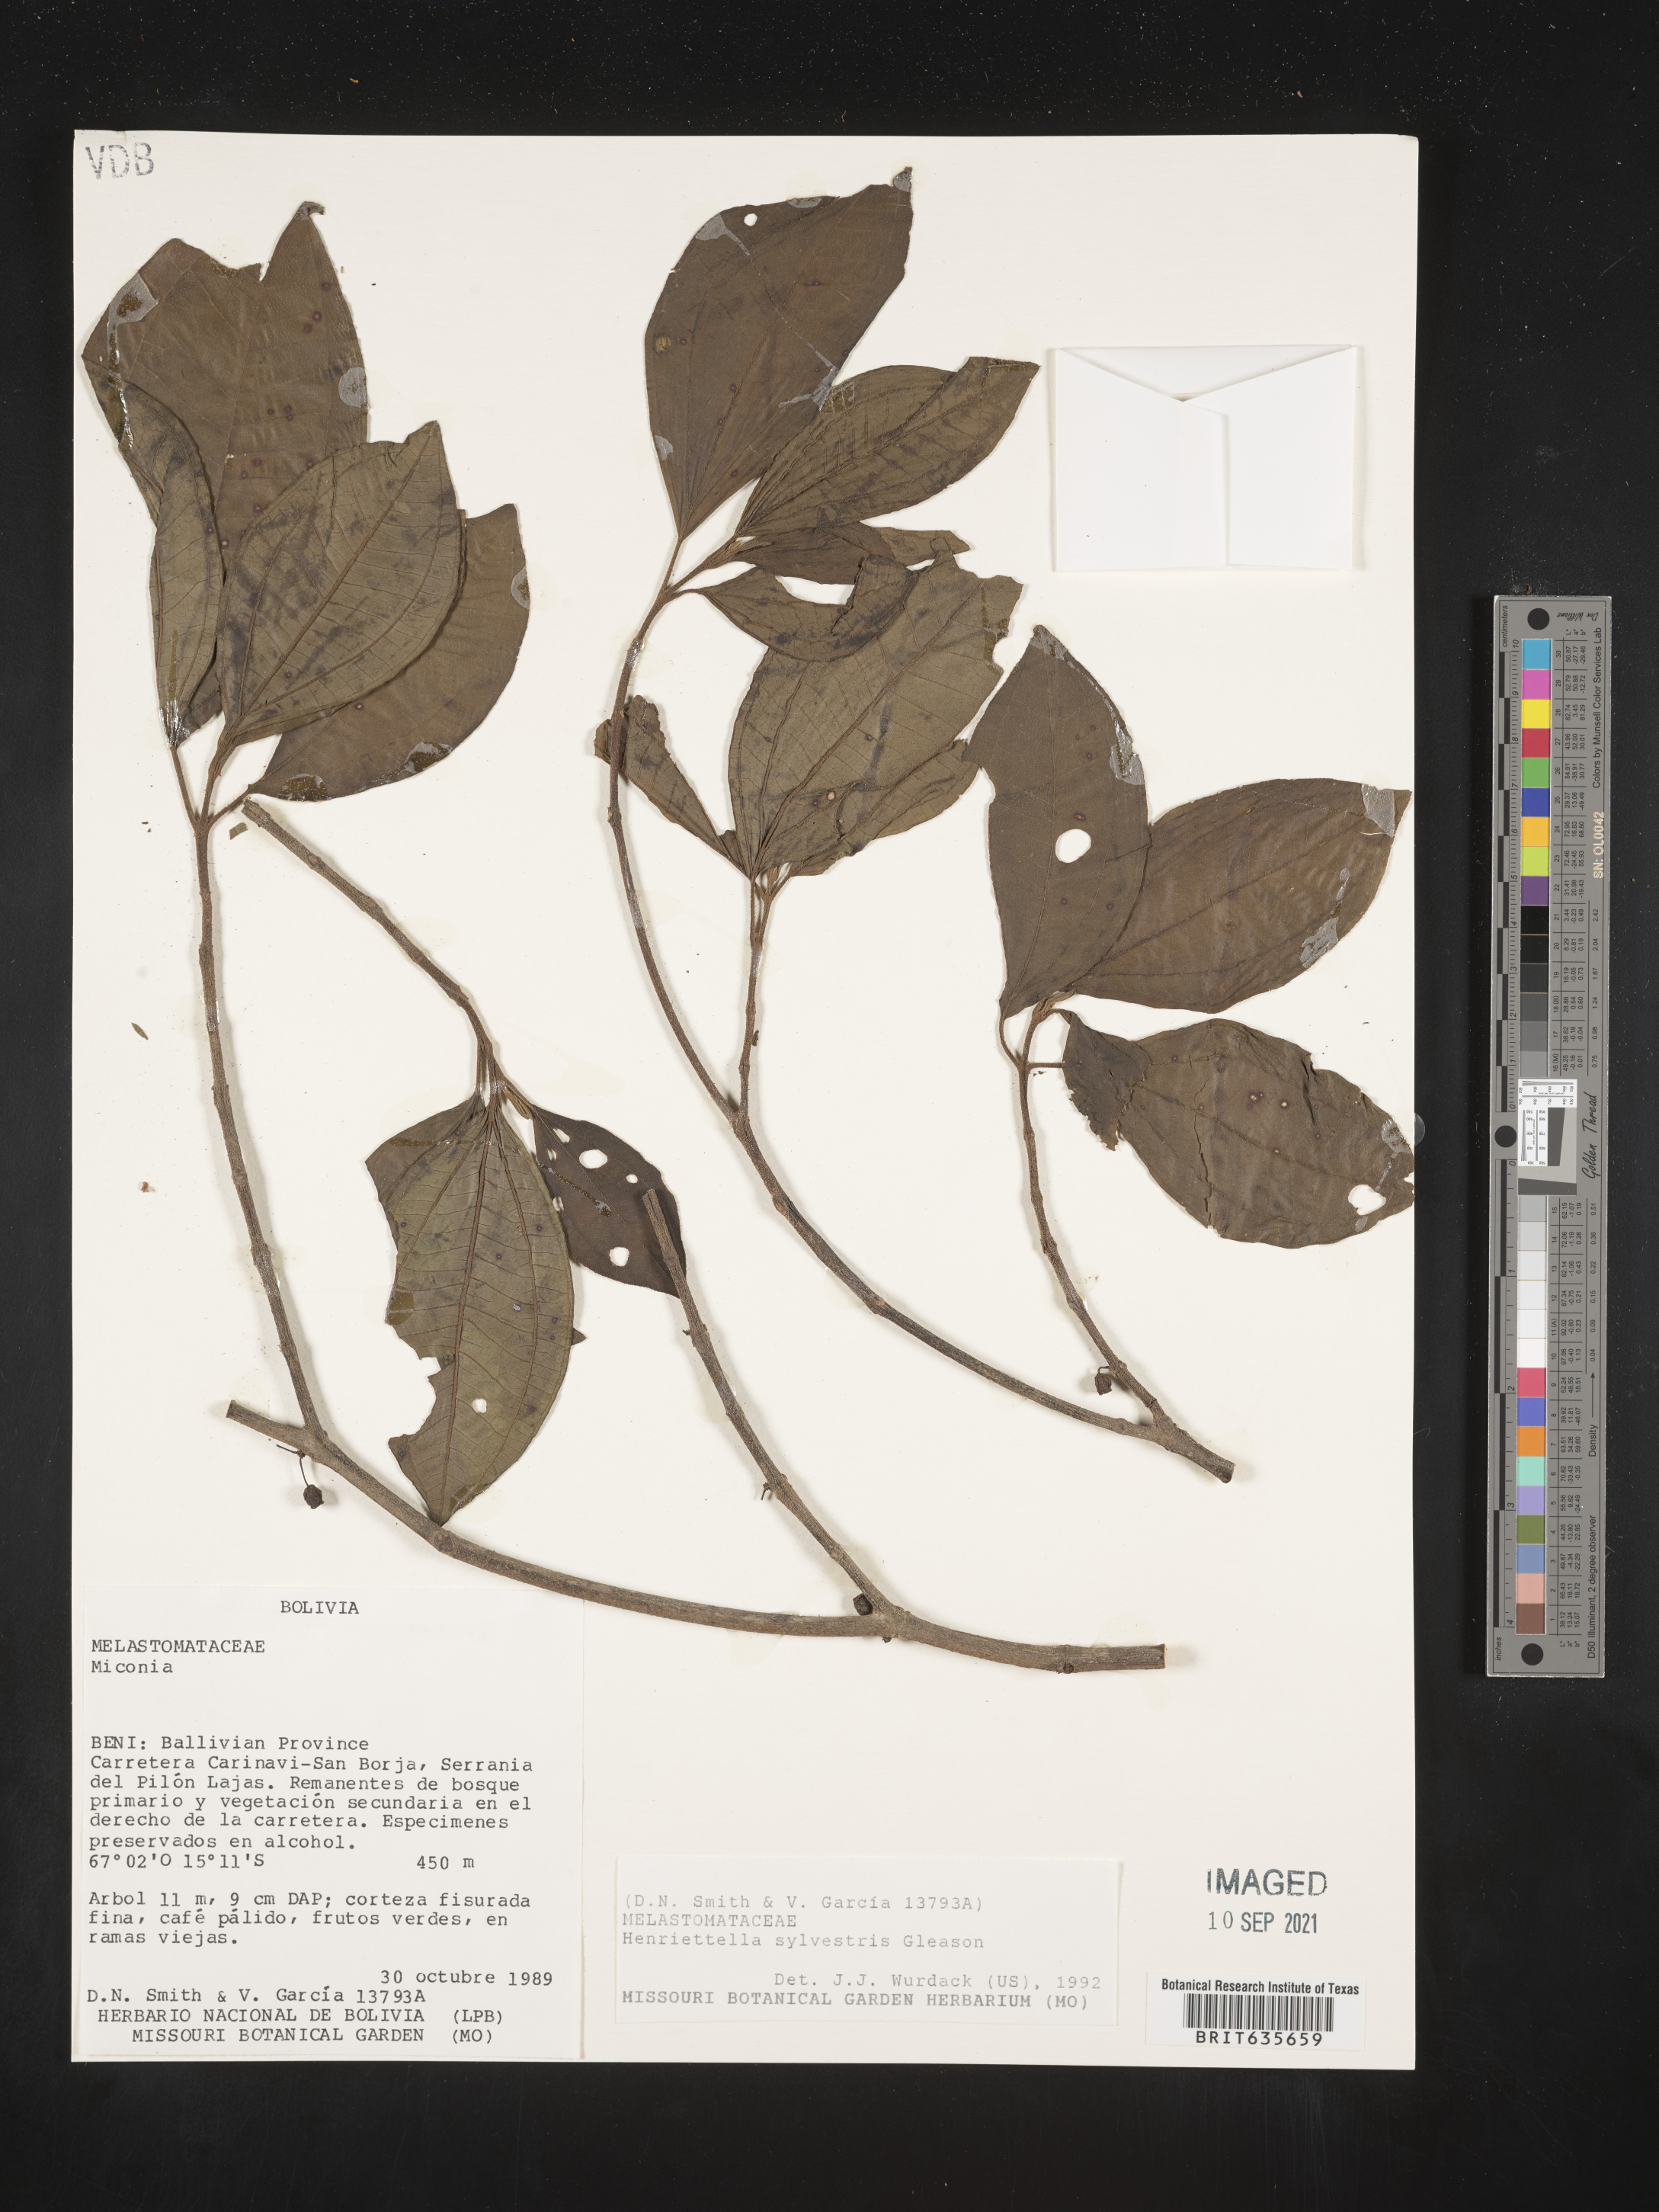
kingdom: Plantae
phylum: Tracheophyta
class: Magnoliopsida
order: Myrtales
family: Melastomataceae
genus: Henriettea
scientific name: Henriettea
